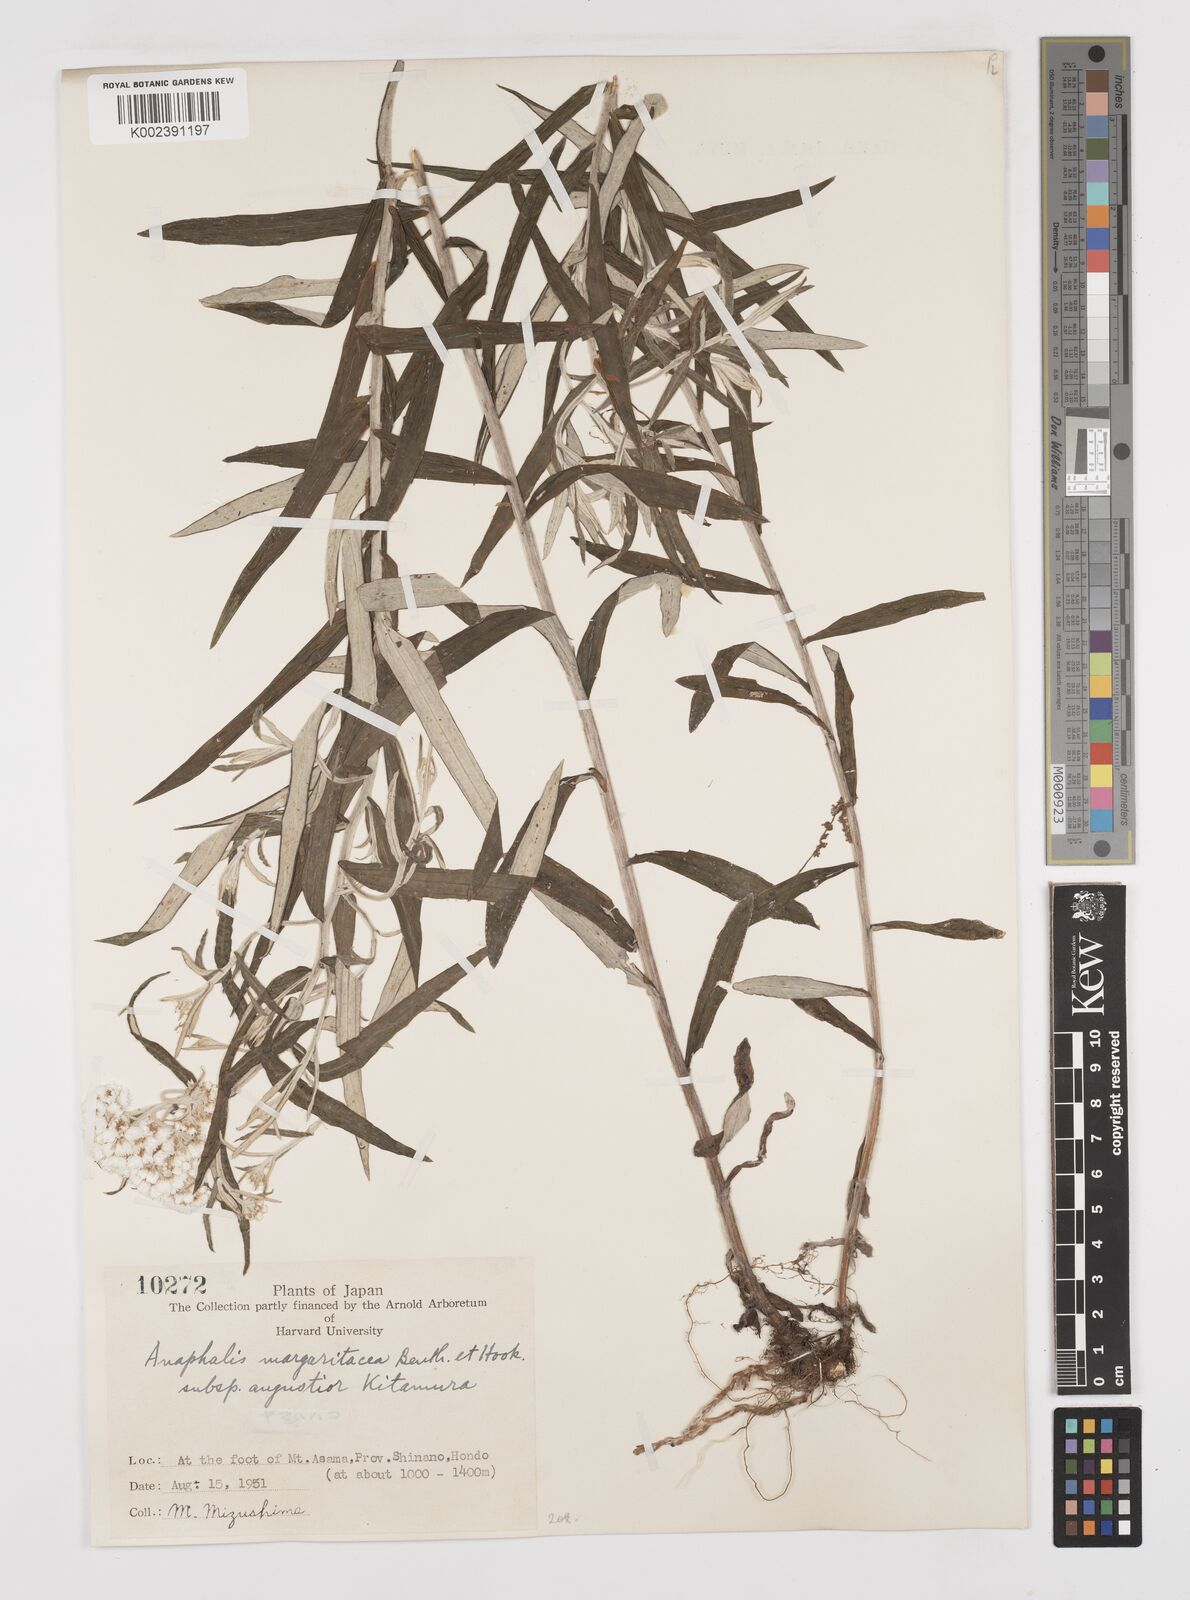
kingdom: Plantae
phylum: Tracheophyta
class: Magnoliopsida
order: Asterales
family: Asteraceae
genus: Anaphalis
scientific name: Anaphalis margaritacea
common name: Pearly everlasting
